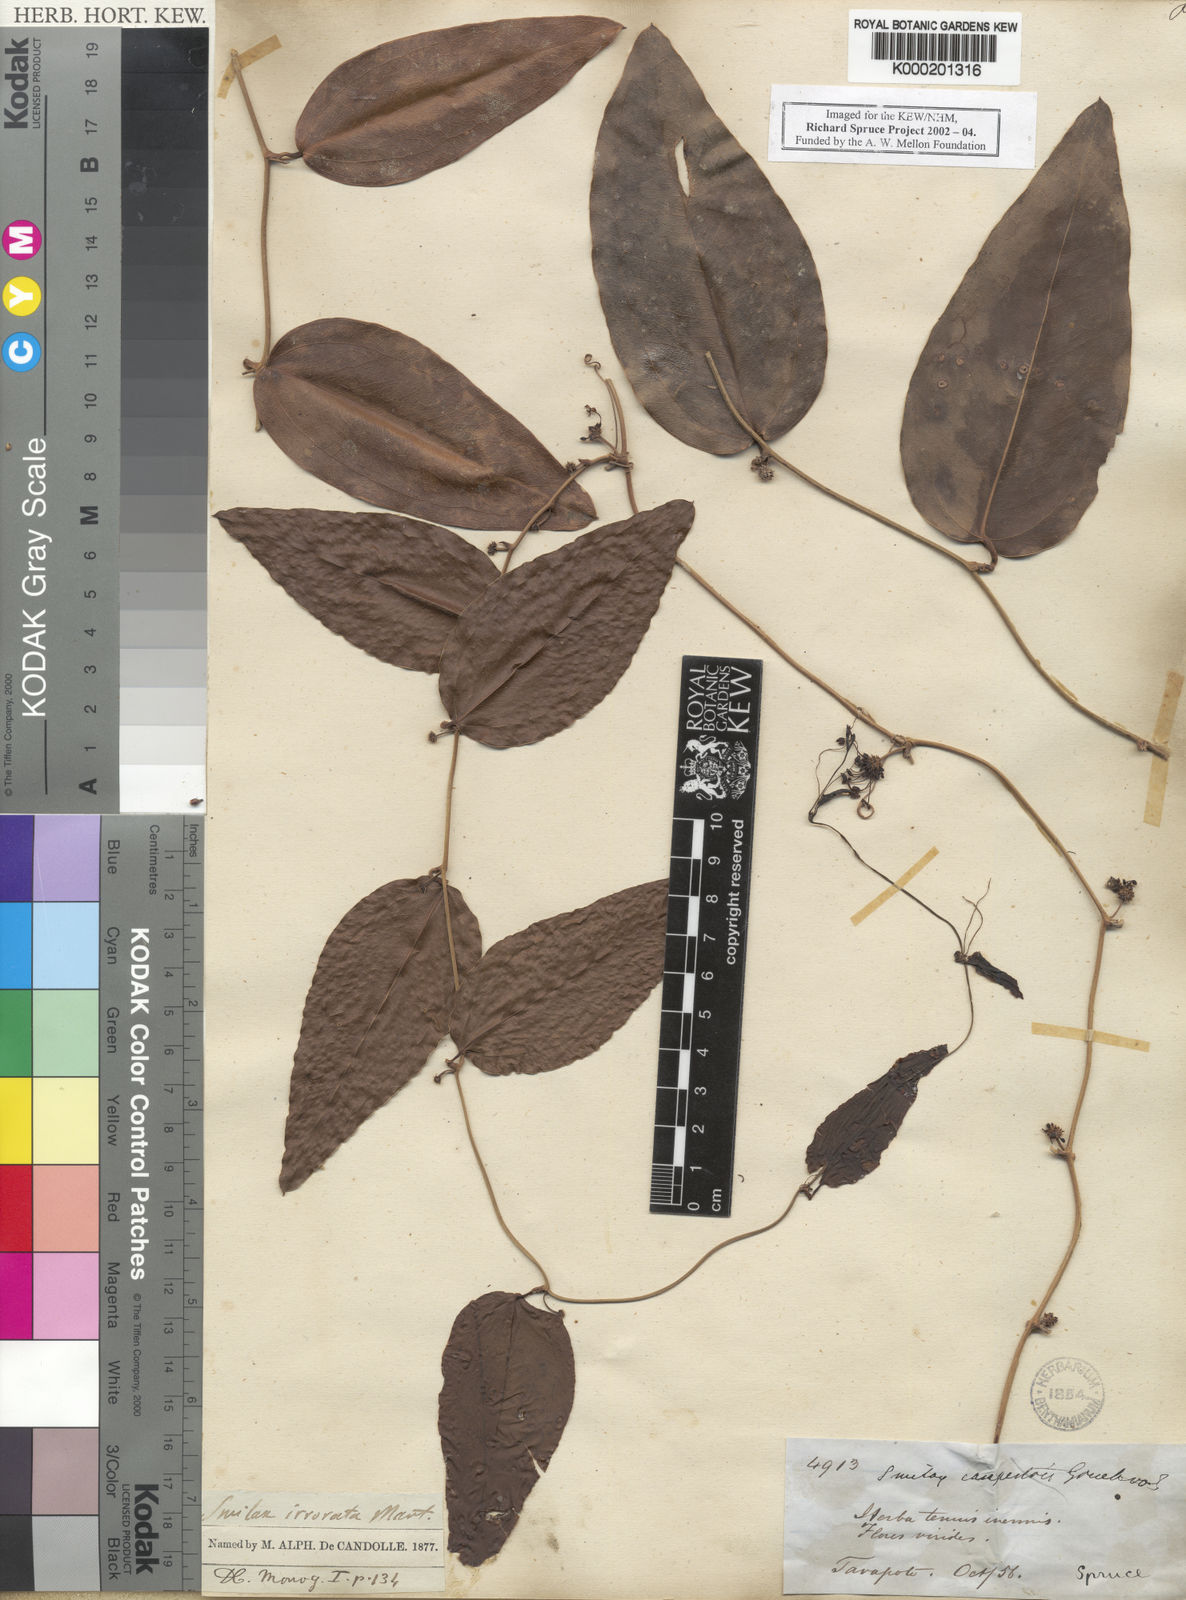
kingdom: Plantae
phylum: Tracheophyta
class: Liliopsida
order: Liliales
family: Smilacaceae
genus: Smilax
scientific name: Smilax irrorata
